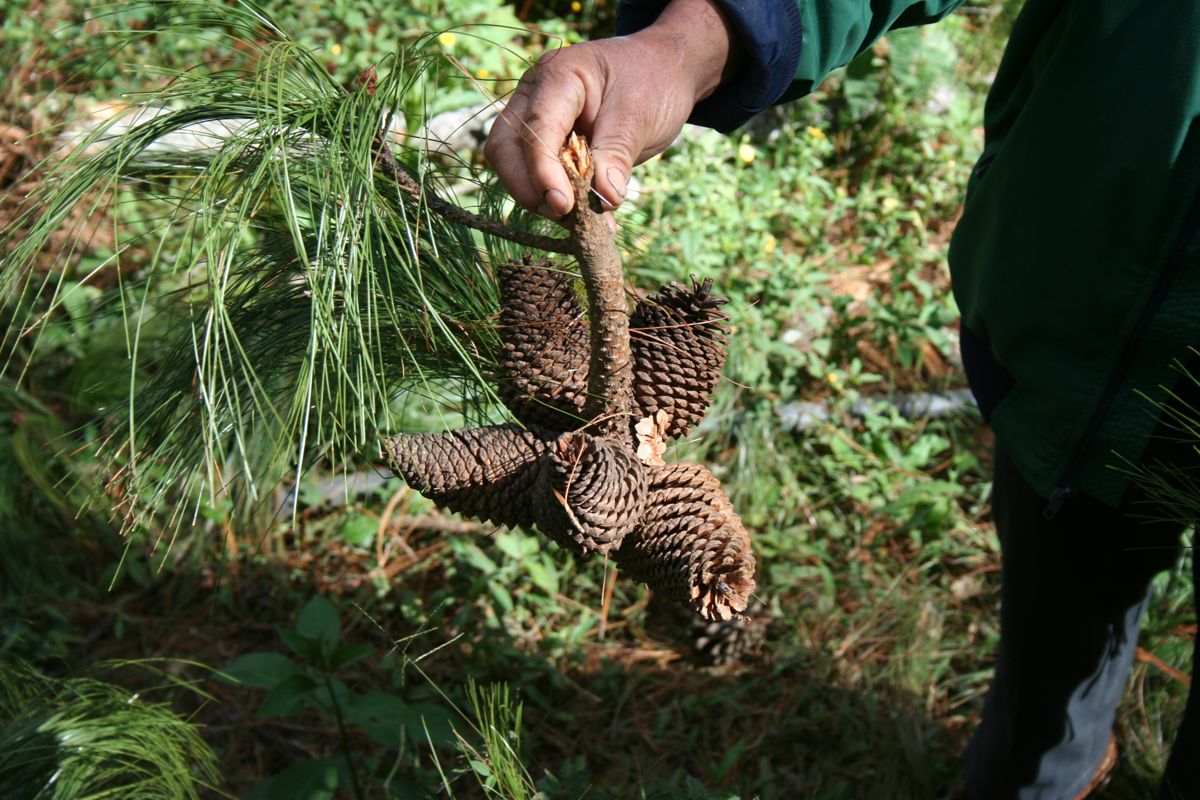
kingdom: Plantae
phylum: Tracheophyta
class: Pinopsida
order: Pinales
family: Pinaceae
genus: Pinus
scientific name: Pinus pseudostrobus
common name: False weymouth pine
